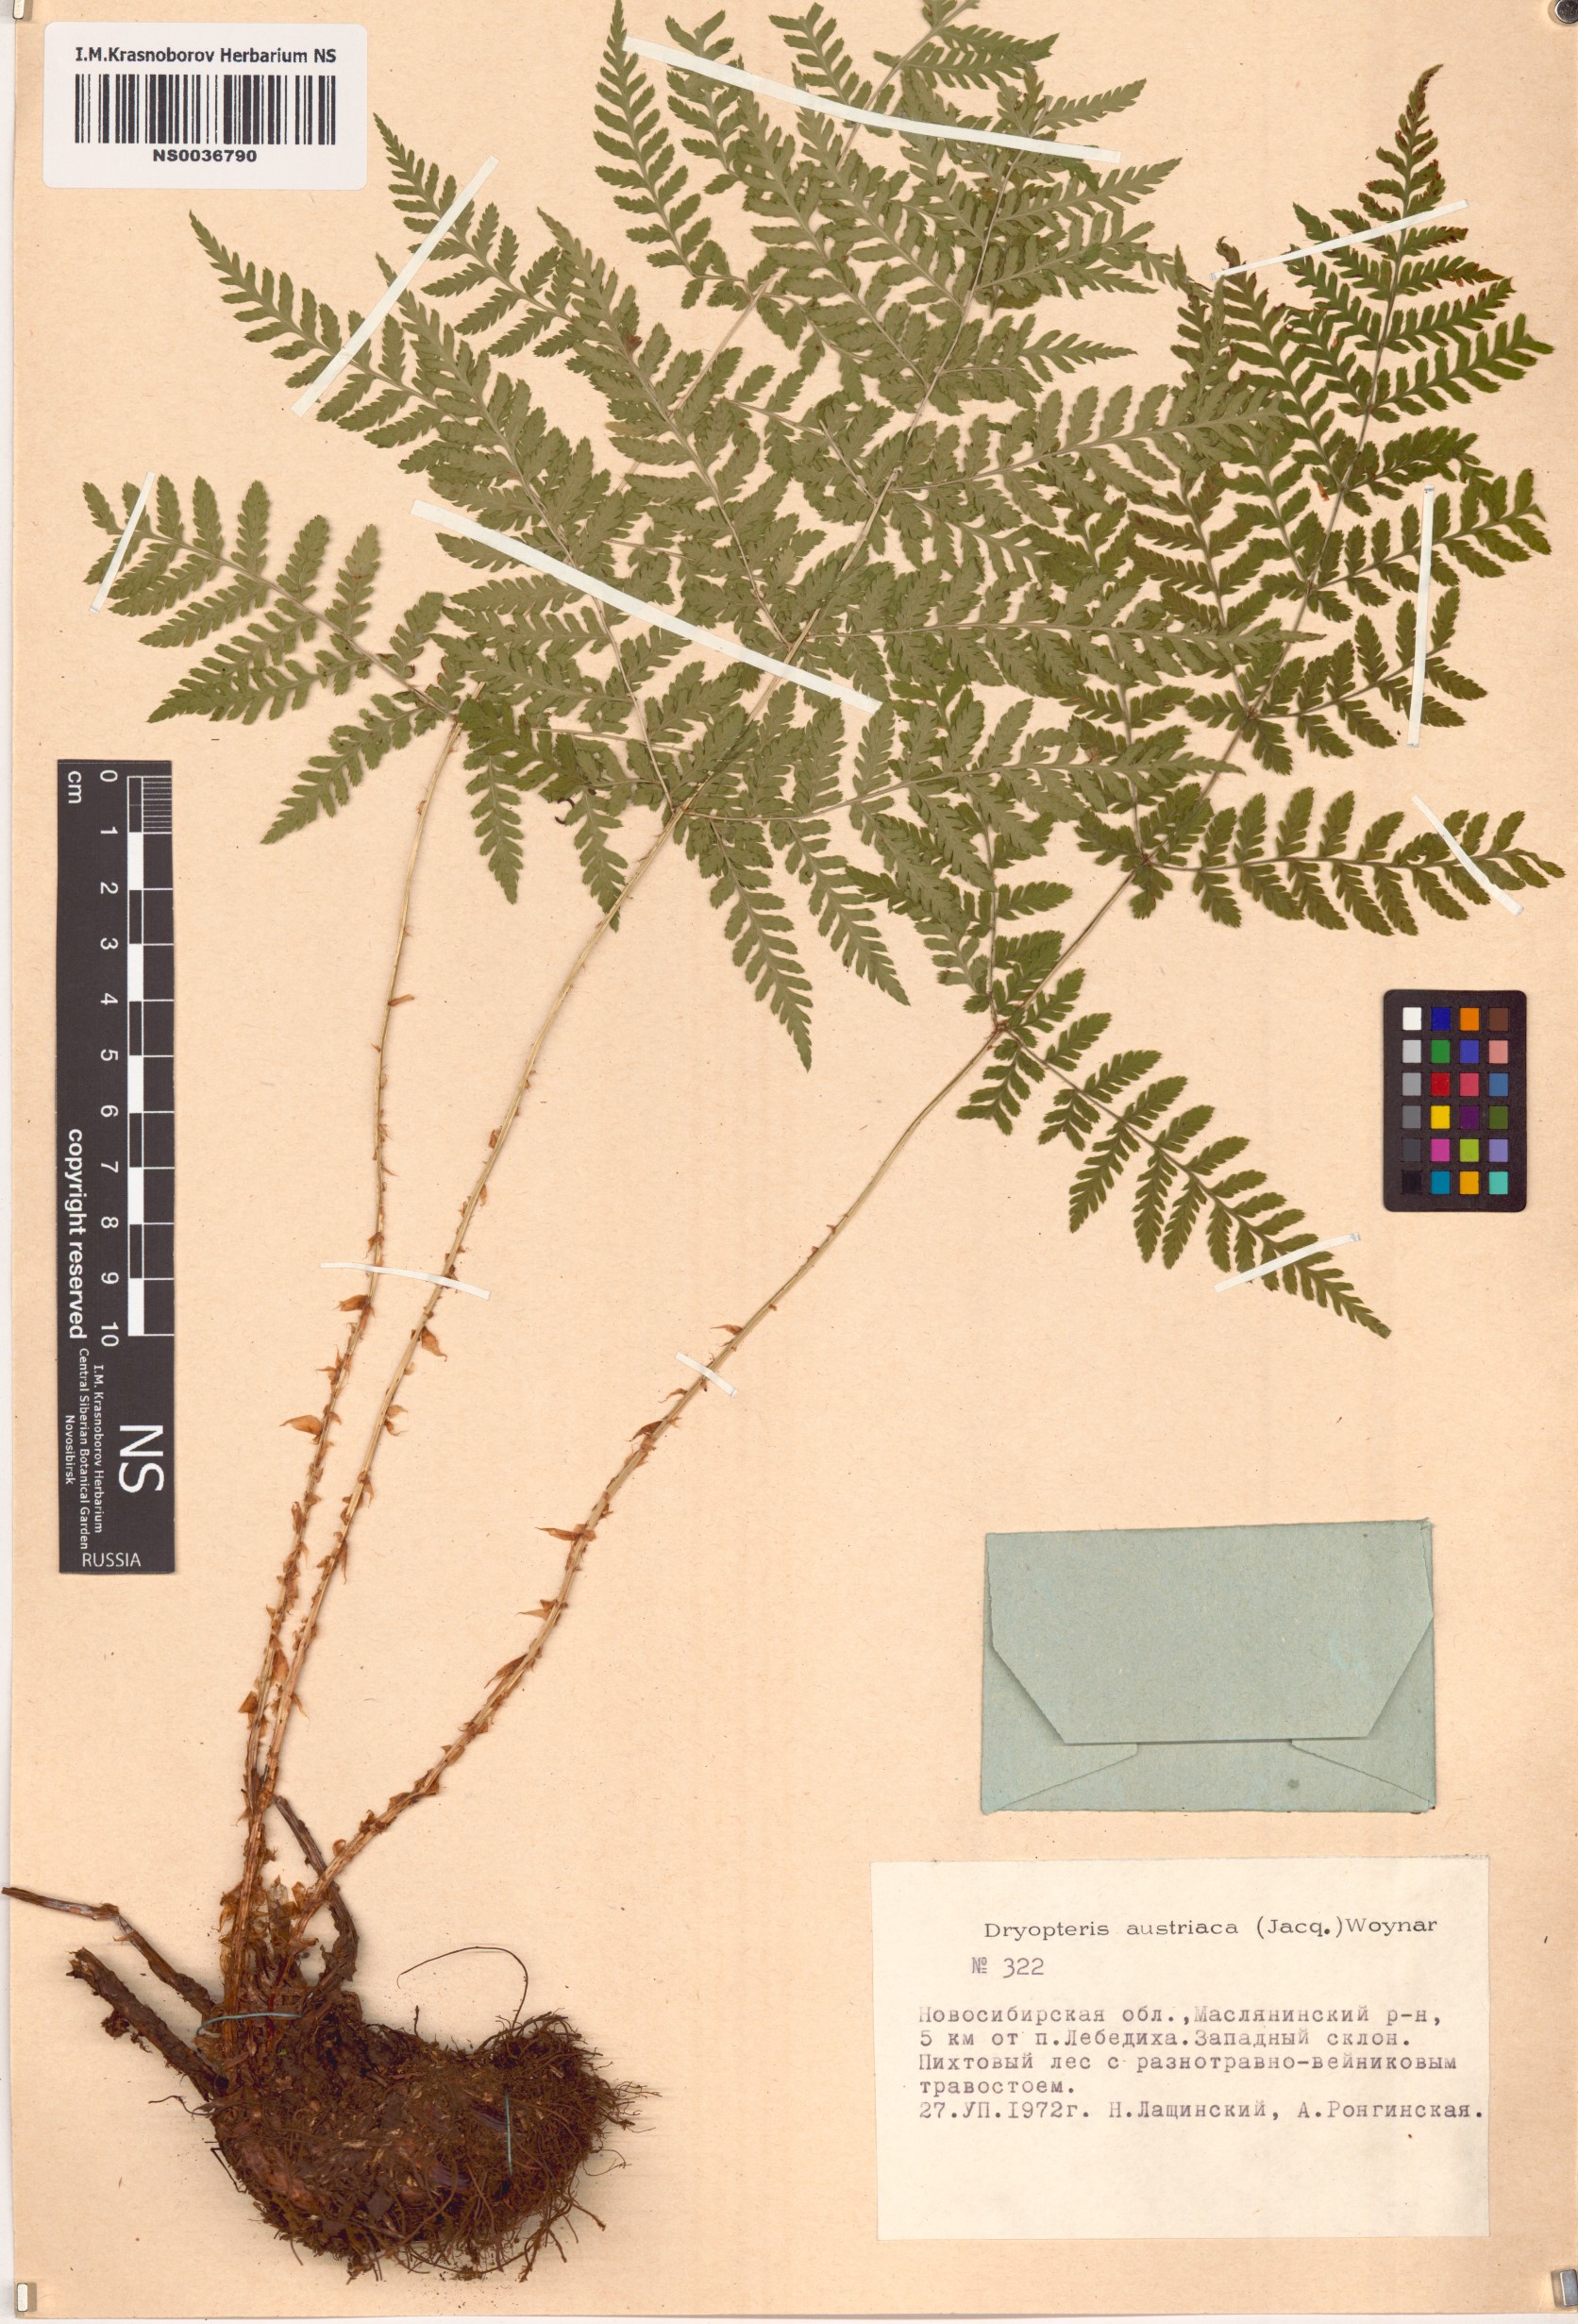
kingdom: Plantae
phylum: Tracheophyta
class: Polypodiopsida
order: Polypodiales
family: Dryopteridaceae
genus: Dryopteris
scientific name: Dryopteris dilatata
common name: Broad buckler-fern
